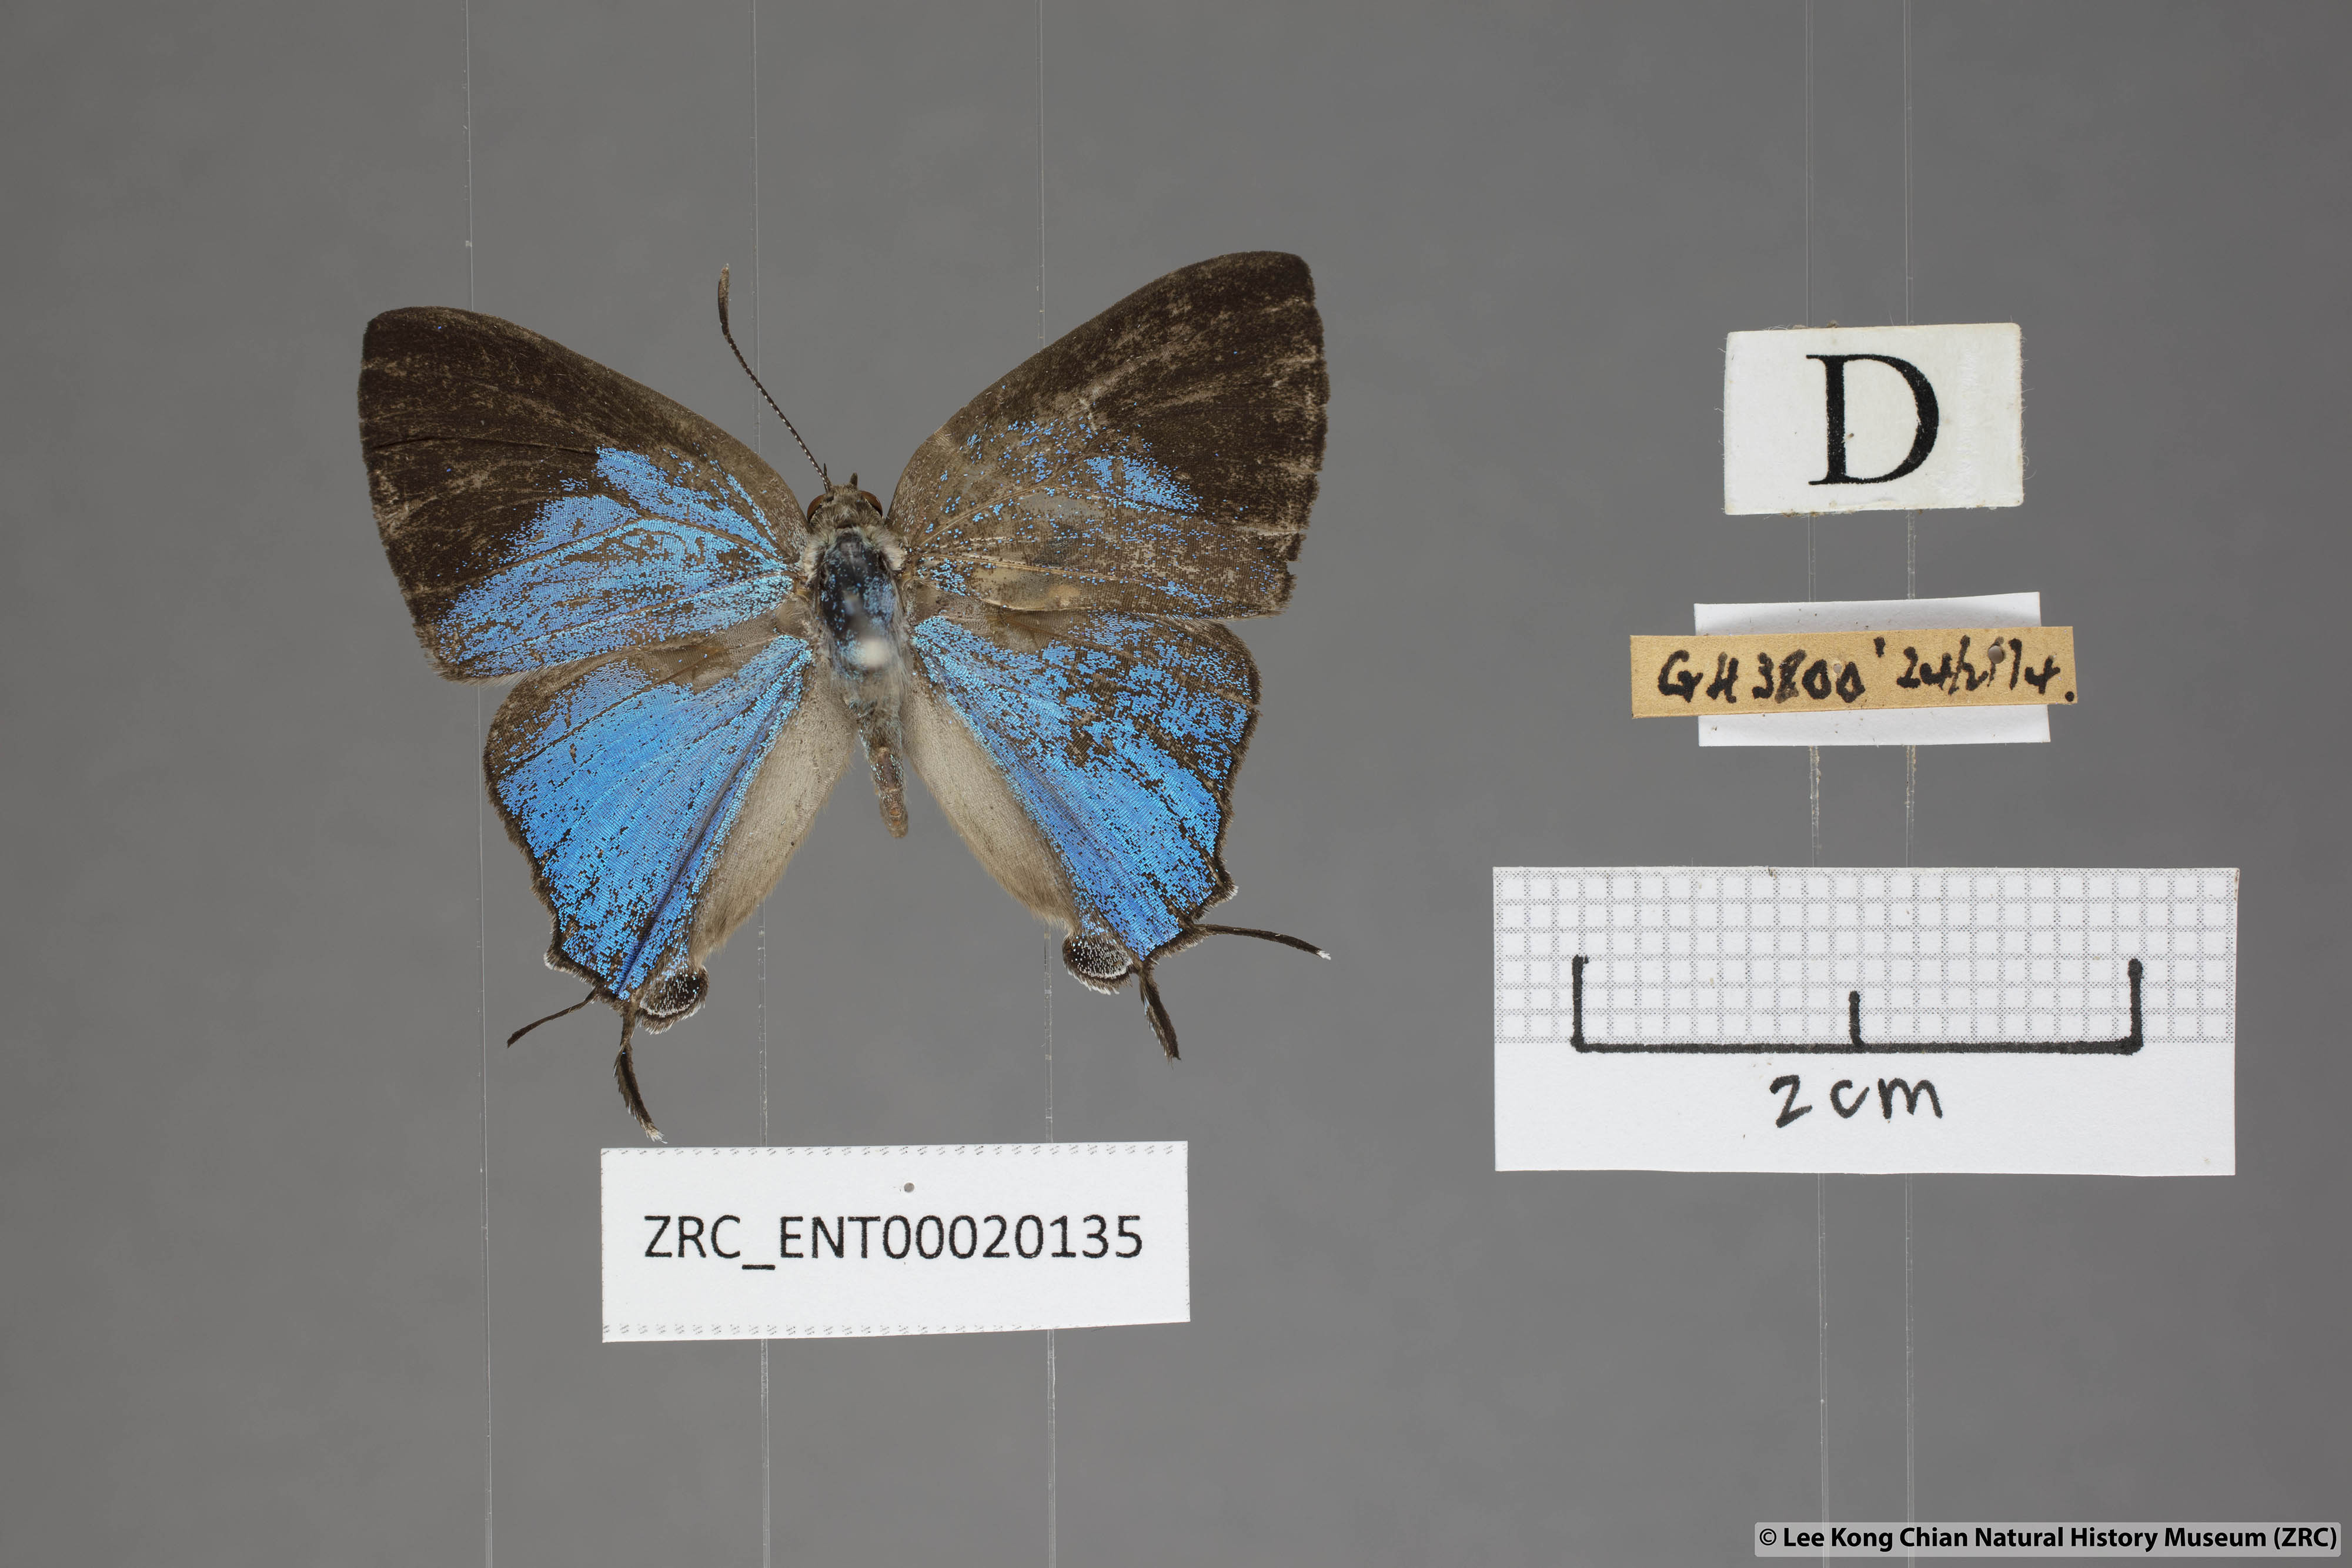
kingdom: Animalia
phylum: Arthropoda
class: Insecta
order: Lepidoptera
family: Lycaenidae
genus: Creon
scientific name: Creon cleobis
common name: Broad-tail royal
